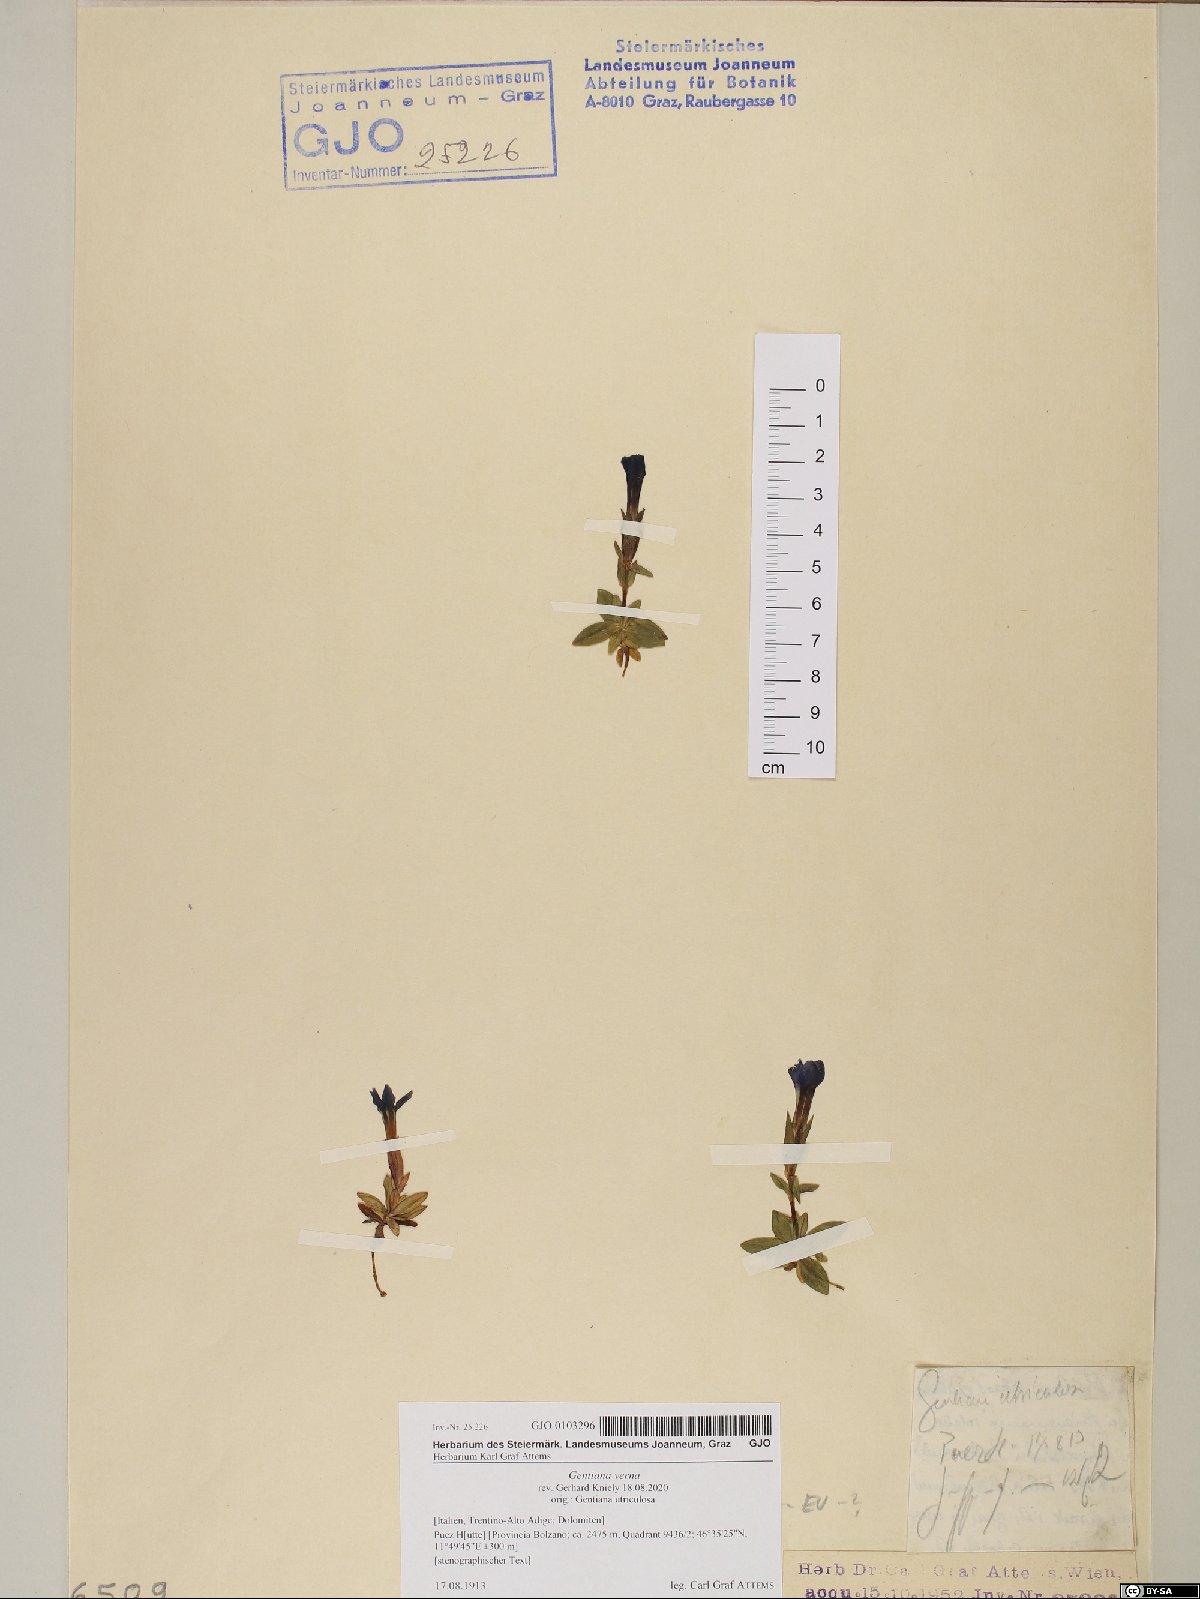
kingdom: Plantae
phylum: Tracheophyta
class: Magnoliopsida
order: Gentianales
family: Gentianaceae
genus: Gentiana
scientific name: Gentiana verna
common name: Spring gentian
